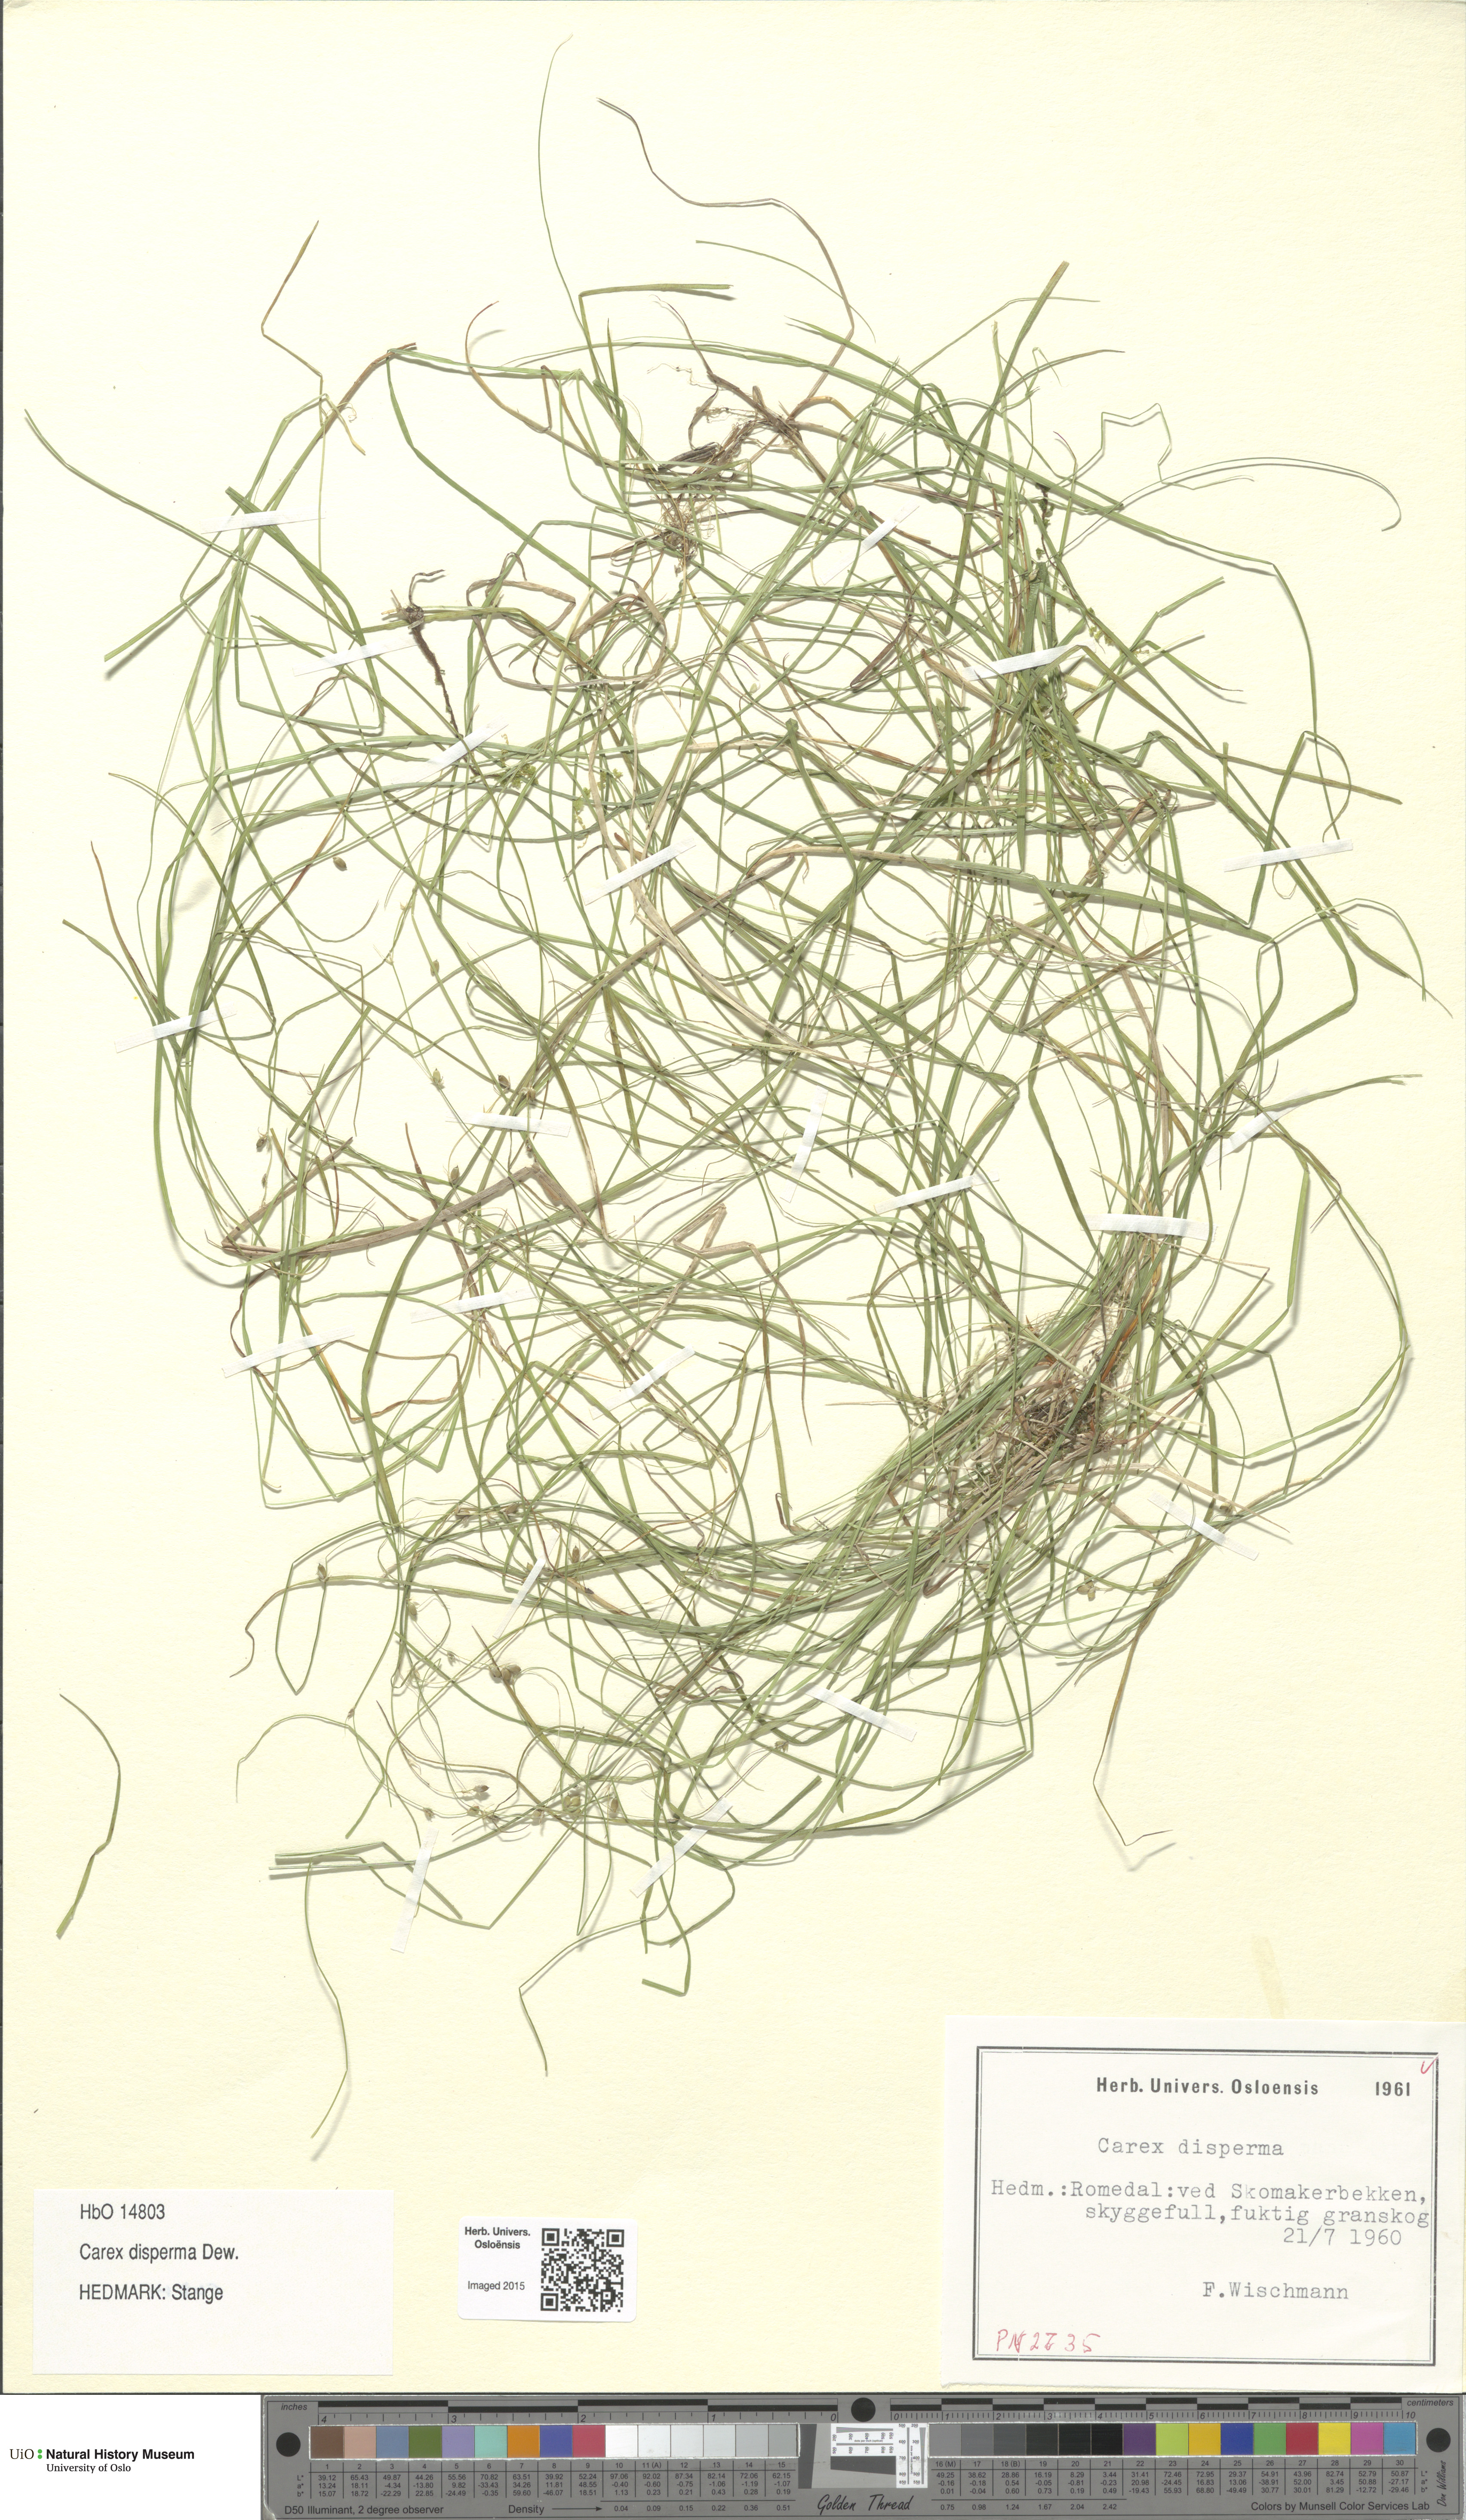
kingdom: Plantae
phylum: Tracheophyta
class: Liliopsida
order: Poales
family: Cyperaceae
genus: Carex
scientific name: Carex disperma
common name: Short-leaved sedge
